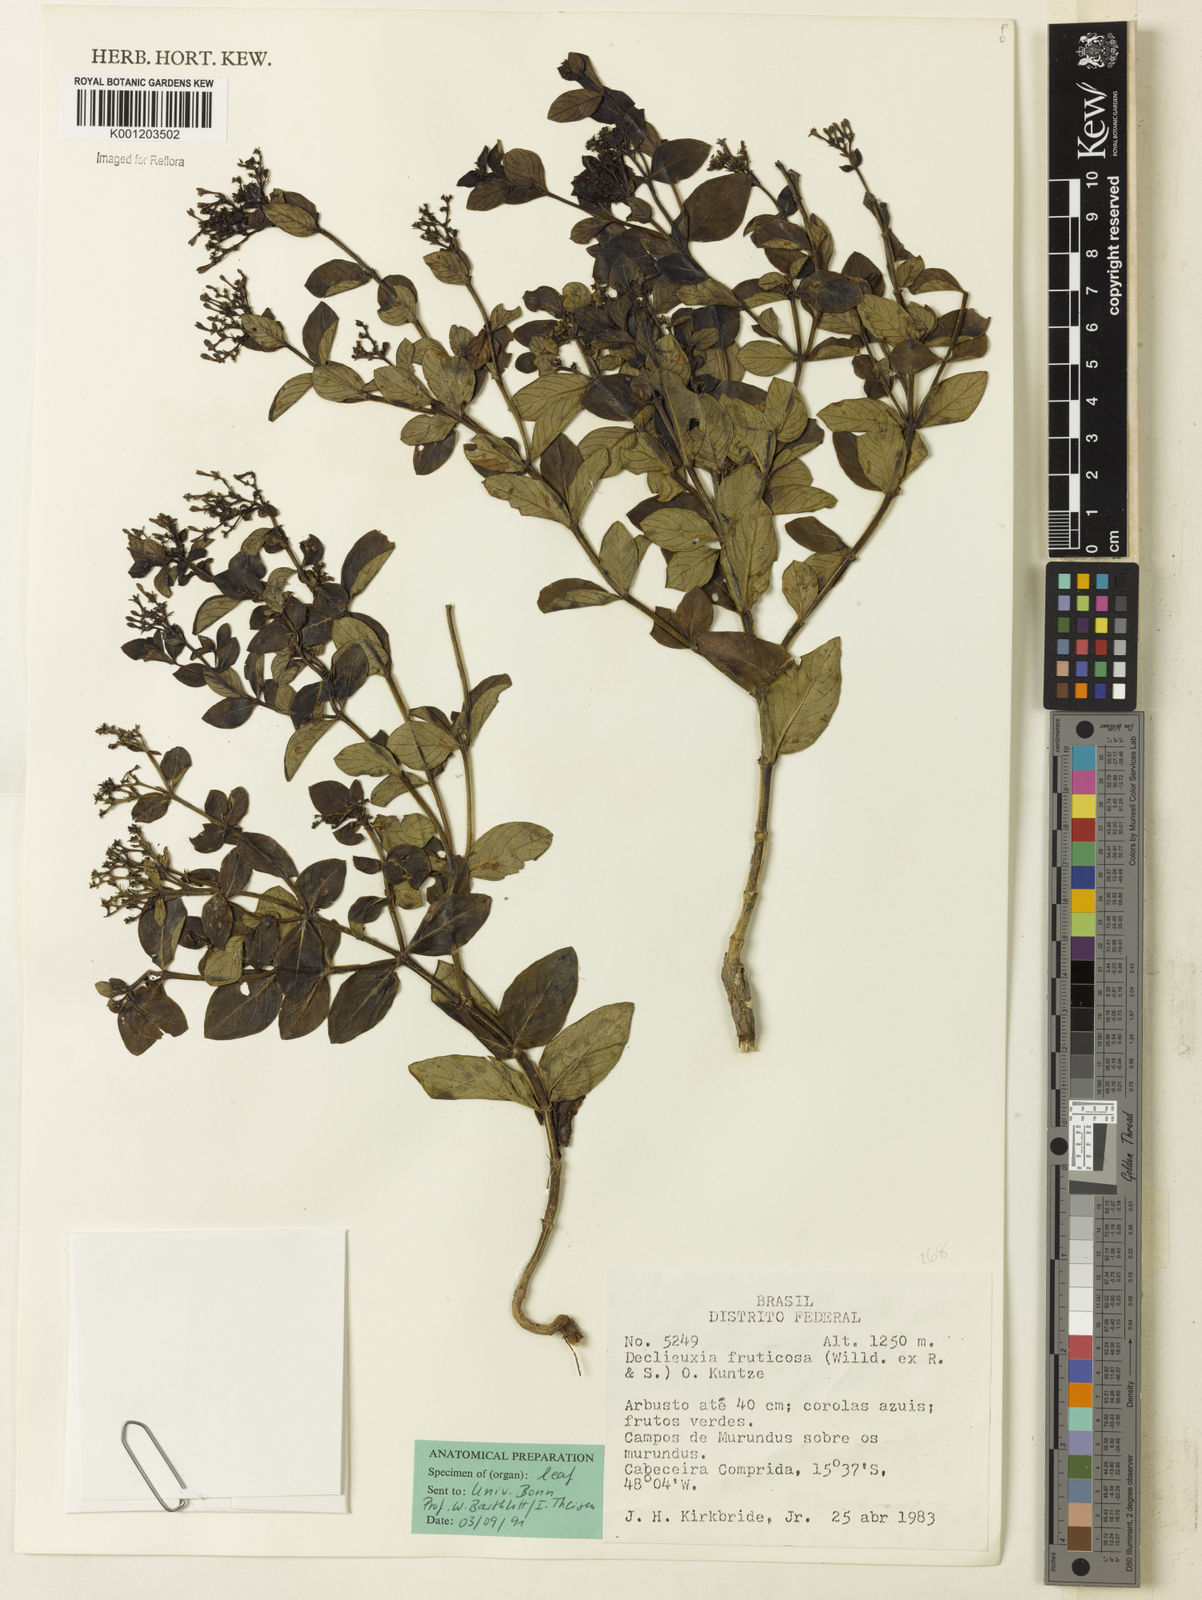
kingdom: Plantae
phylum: Tracheophyta
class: Magnoliopsida
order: Gentianales
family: Rubiaceae
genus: Declieuxia
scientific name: Declieuxia fruticosa
